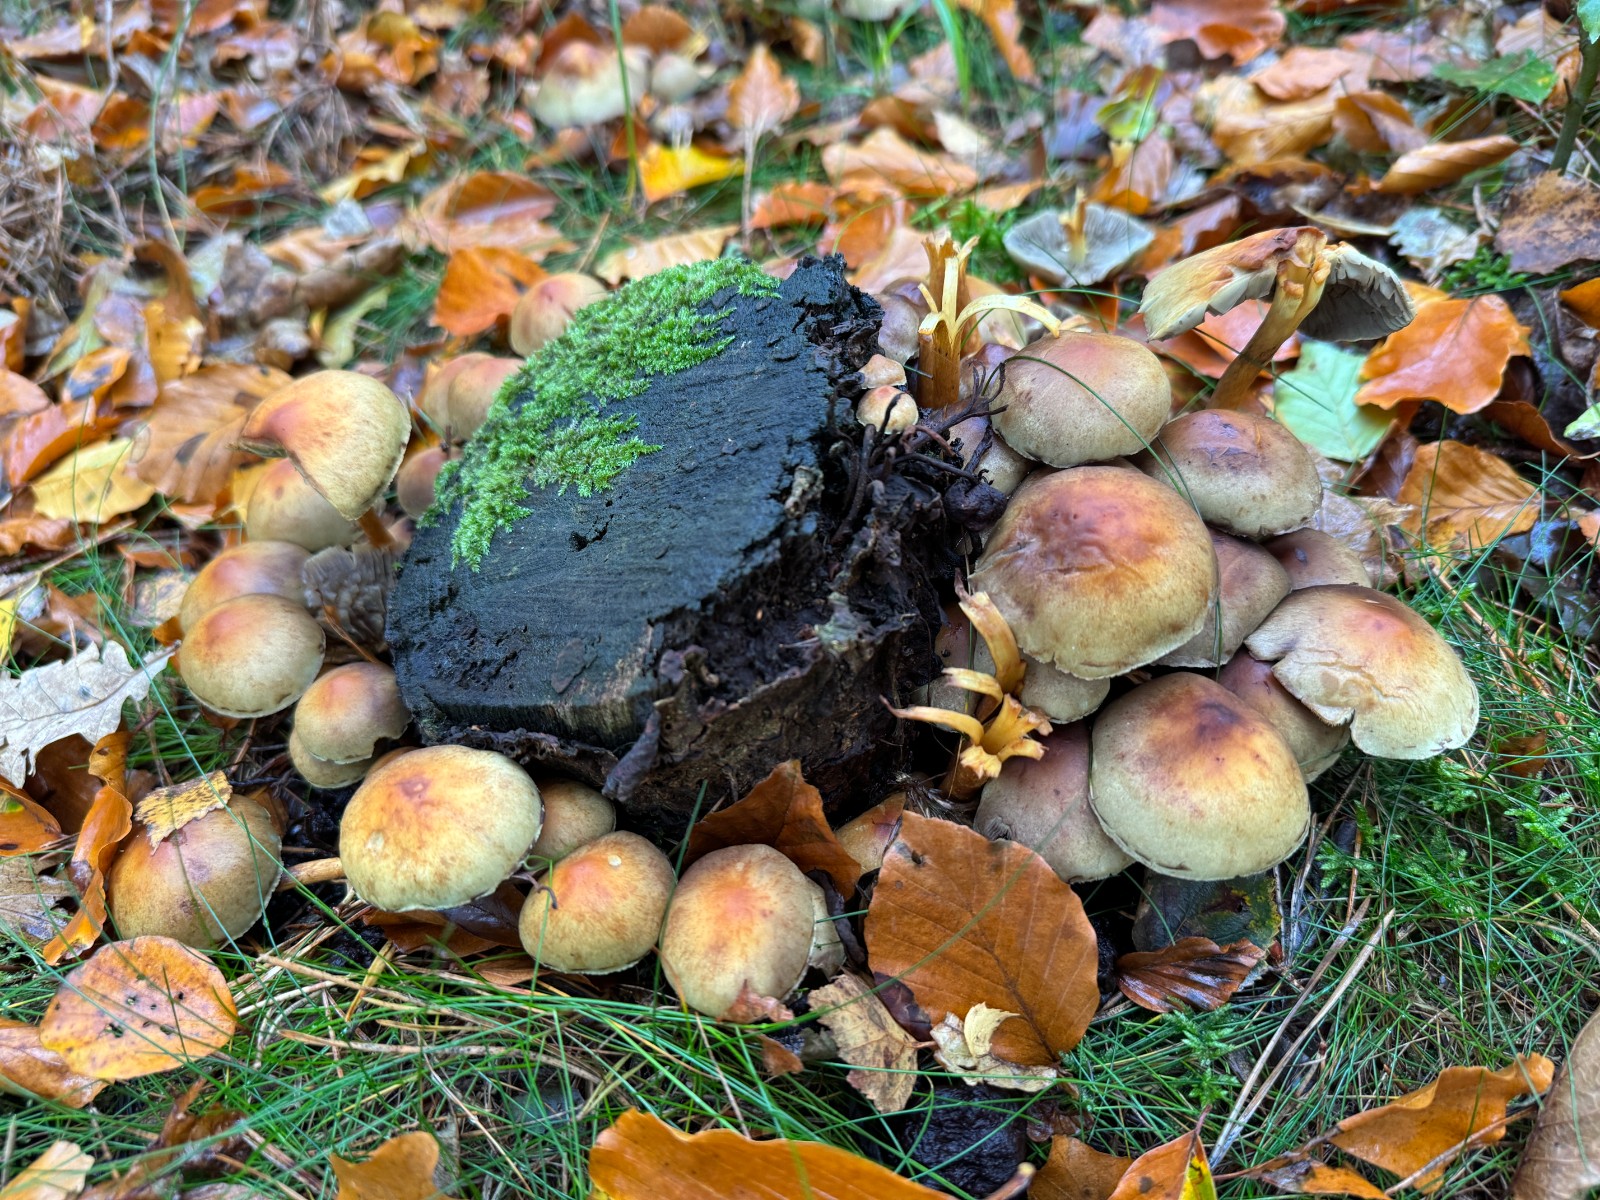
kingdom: Fungi
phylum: Basidiomycota
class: Agaricomycetes
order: Agaricales
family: Strophariaceae
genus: Hypholoma
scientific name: Hypholoma fasciculare
